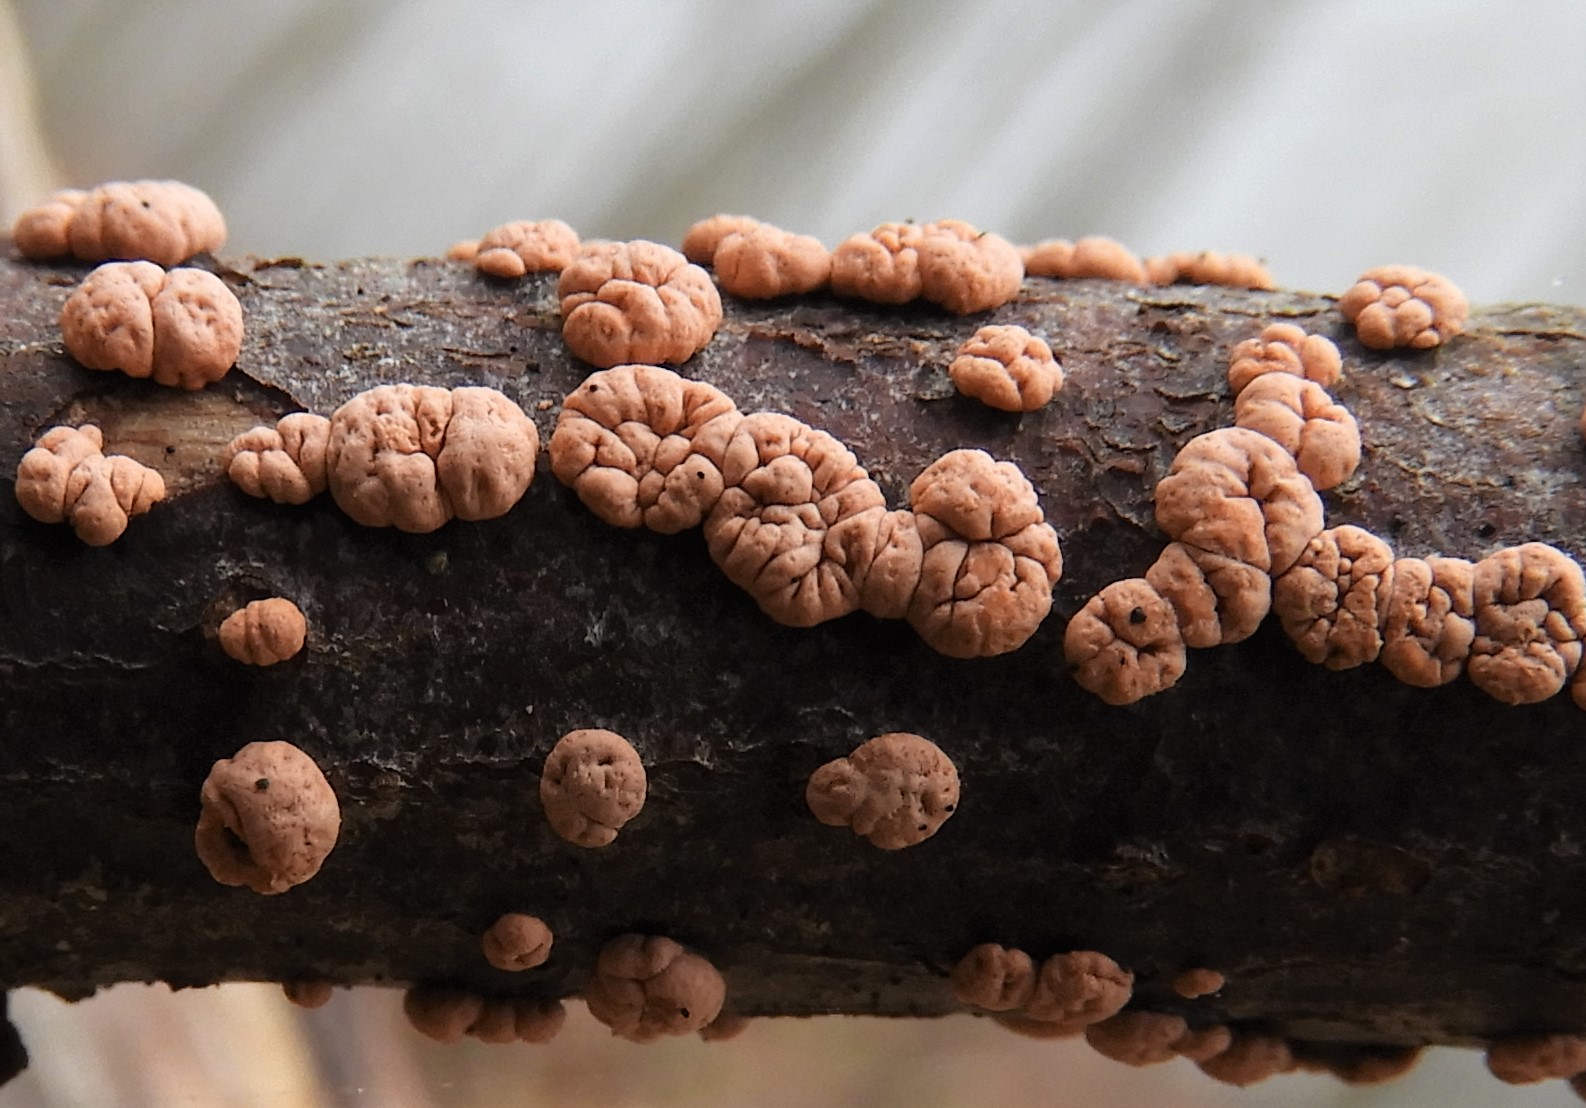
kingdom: Fungi
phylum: Ascomycota
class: Sordariomycetes
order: Hypocreales
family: Nectriaceae
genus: Nectria
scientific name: Nectria cinnabarina
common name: almindelig cinnobersvamp
